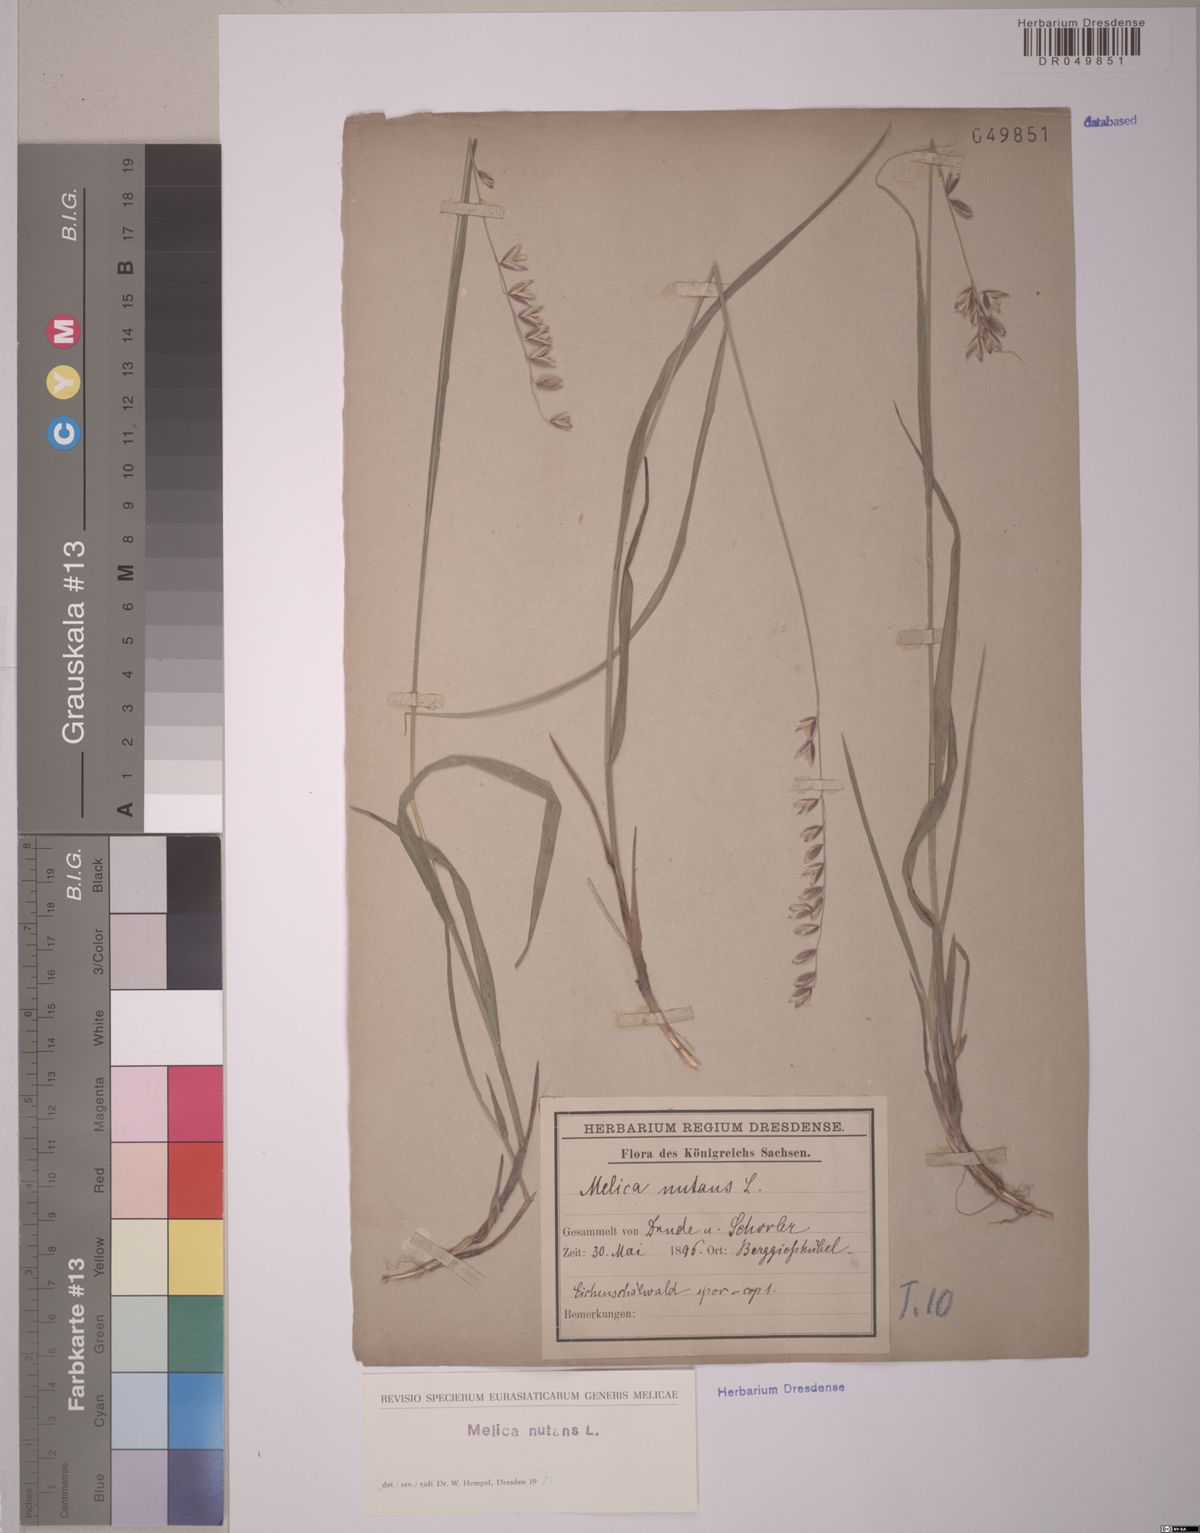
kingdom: Plantae
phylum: Tracheophyta
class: Liliopsida
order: Poales
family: Poaceae
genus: Melica
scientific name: Melica nutans
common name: Mountain melick
